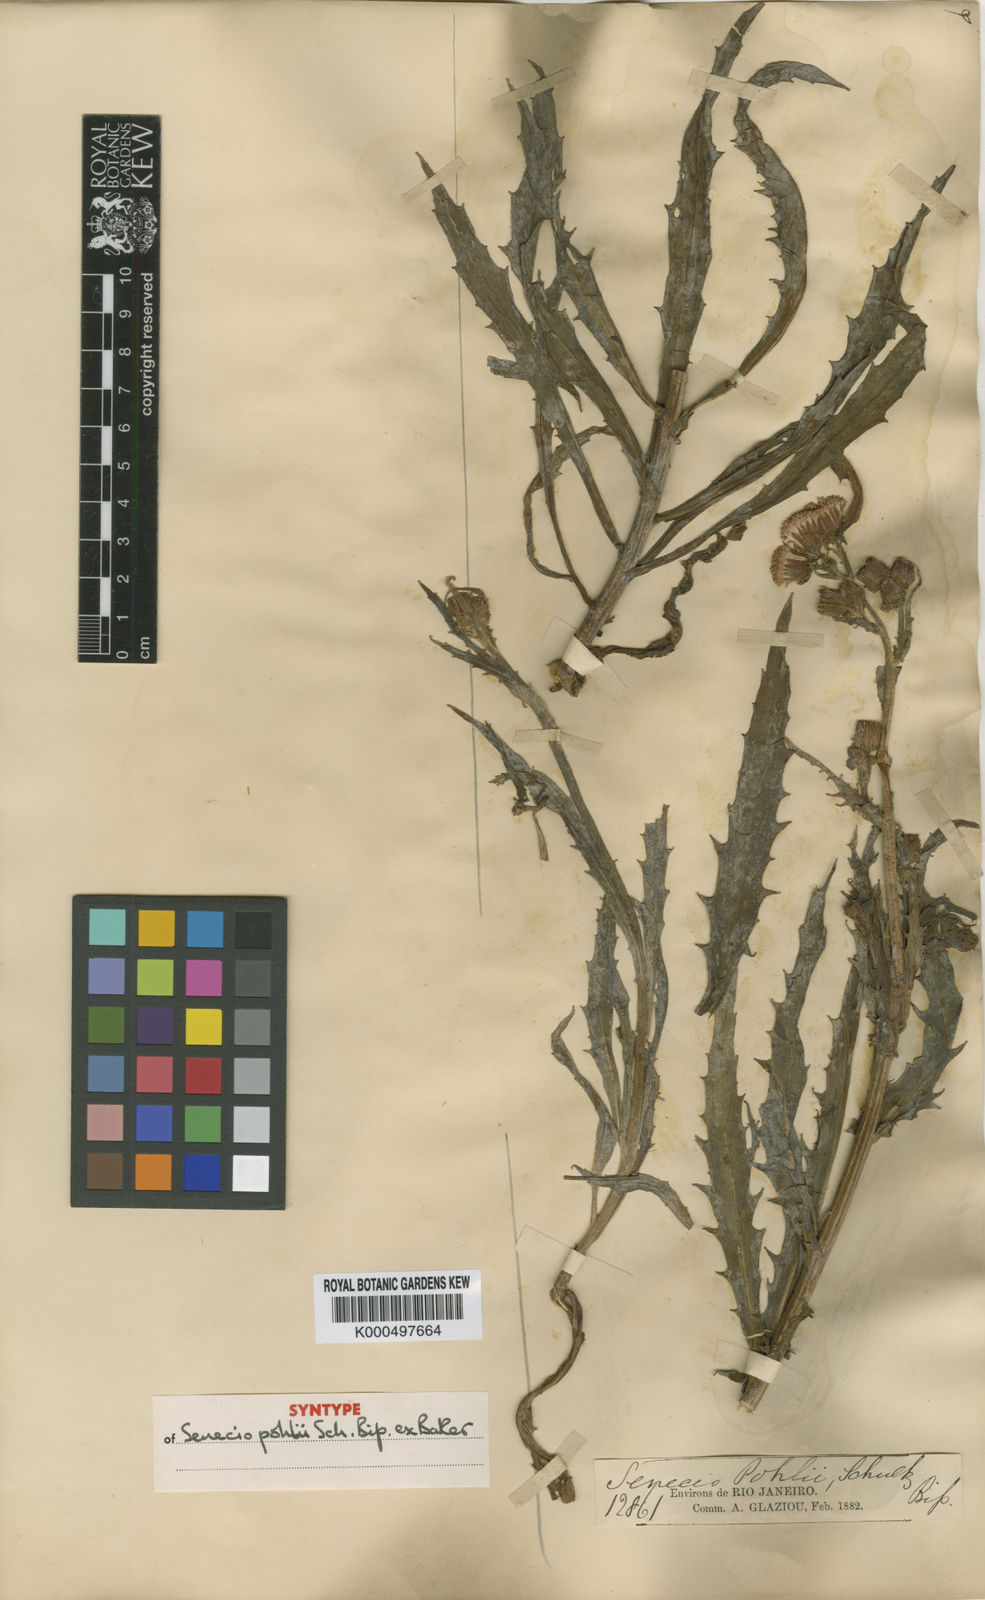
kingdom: Plantae
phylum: Tracheophyta
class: Magnoliopsida
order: Asterales
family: Asteraceae
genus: Senecio
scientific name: Senecio
